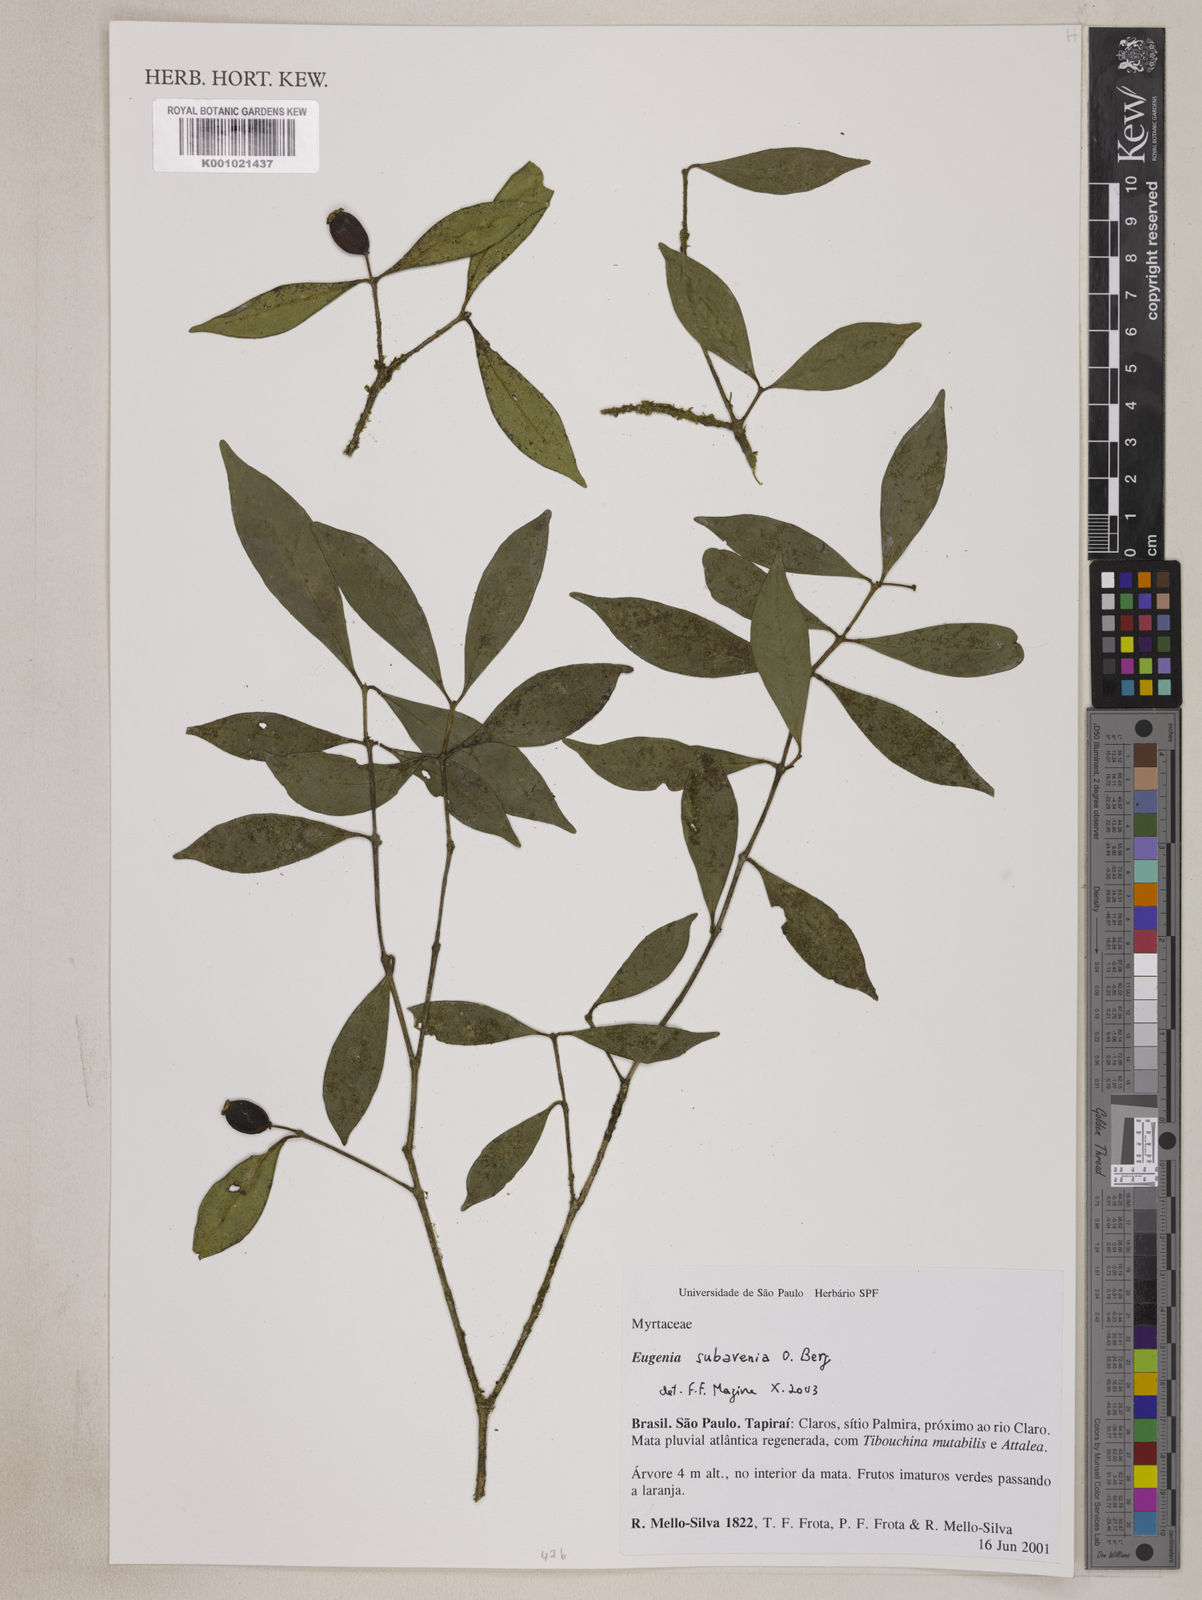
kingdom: Plantae
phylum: Tracheophyta
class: Magnoliopsida
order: Myrtales
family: Myrtaceae
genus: Eugenia
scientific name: Eugenia subavenia
